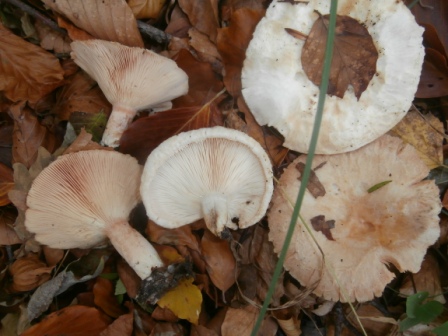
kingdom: Fungi
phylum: Basidiomycota
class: Agaricomycetes
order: Russulales
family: Russulaceae
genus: Lactarius
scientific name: Lactarius pubescens
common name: dunet mælkehat
